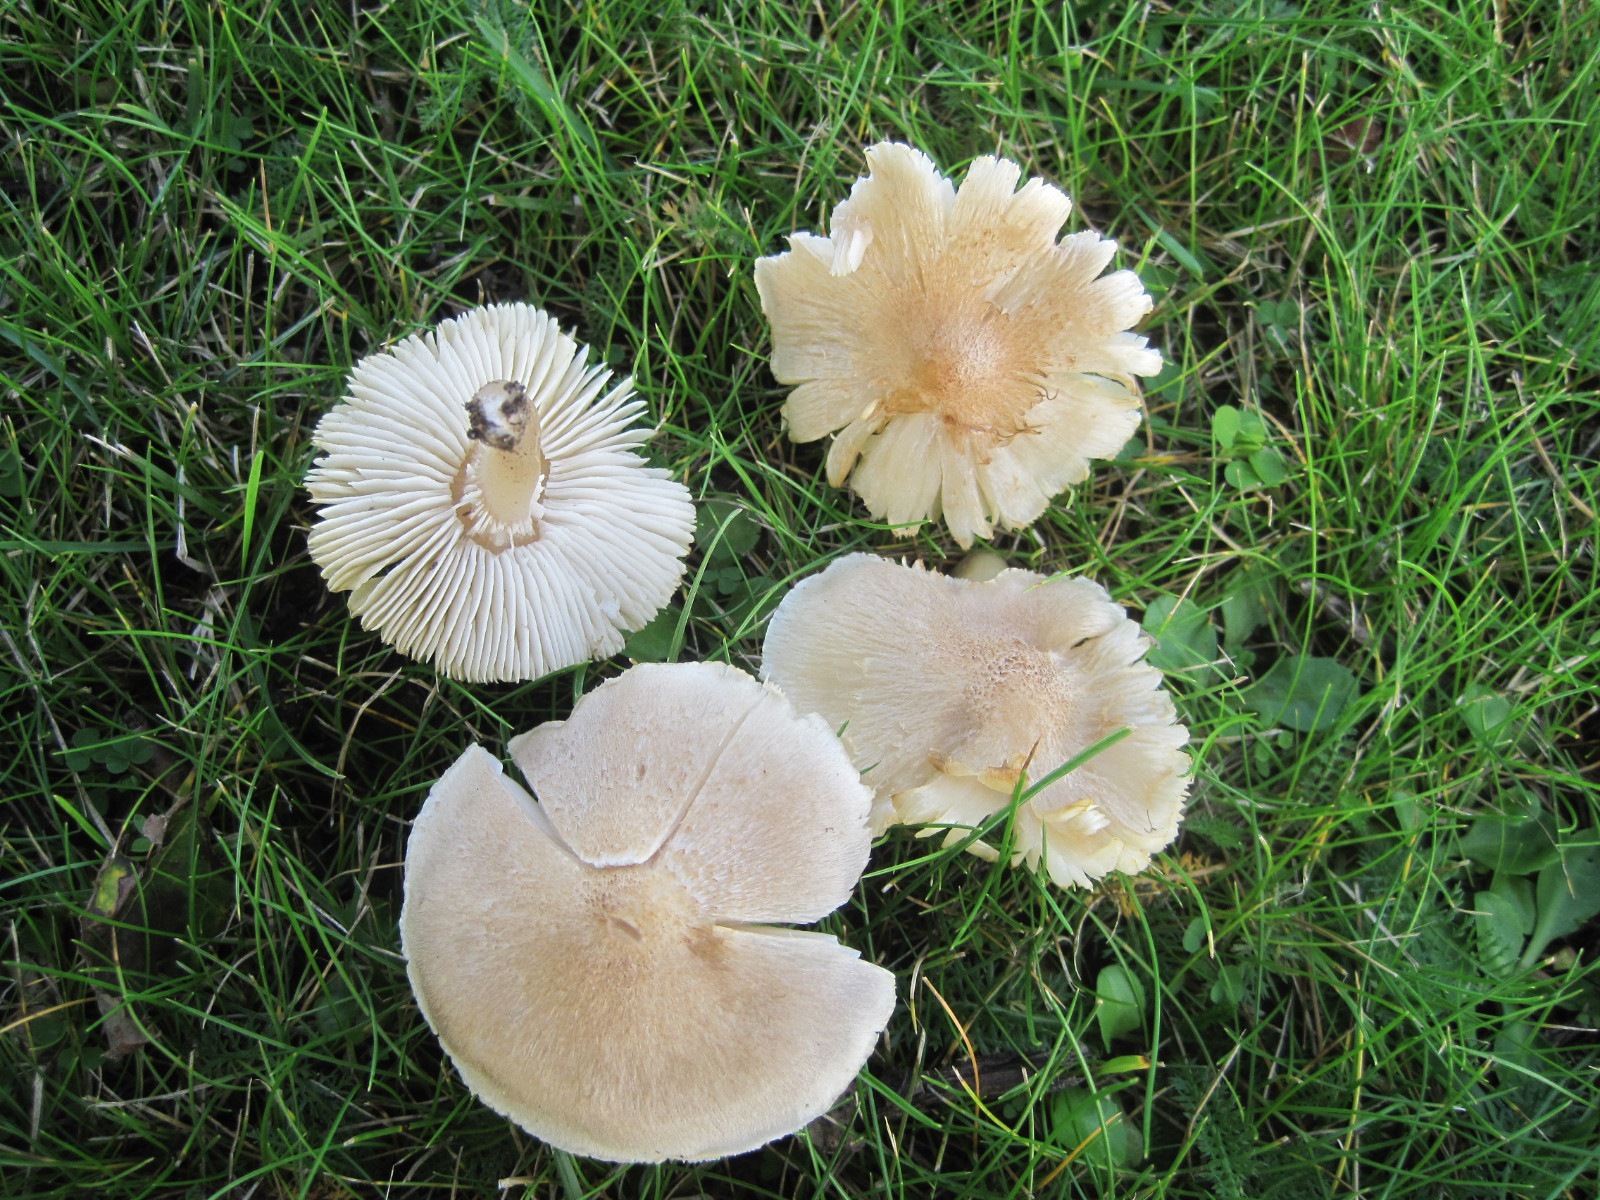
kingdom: Fungi
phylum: Basidiomycota
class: Agaricomycetes
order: Agaricales
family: Tricholomataceae
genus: Tricholoma
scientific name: Tricholoma argyraceum
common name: spids ridderhat
